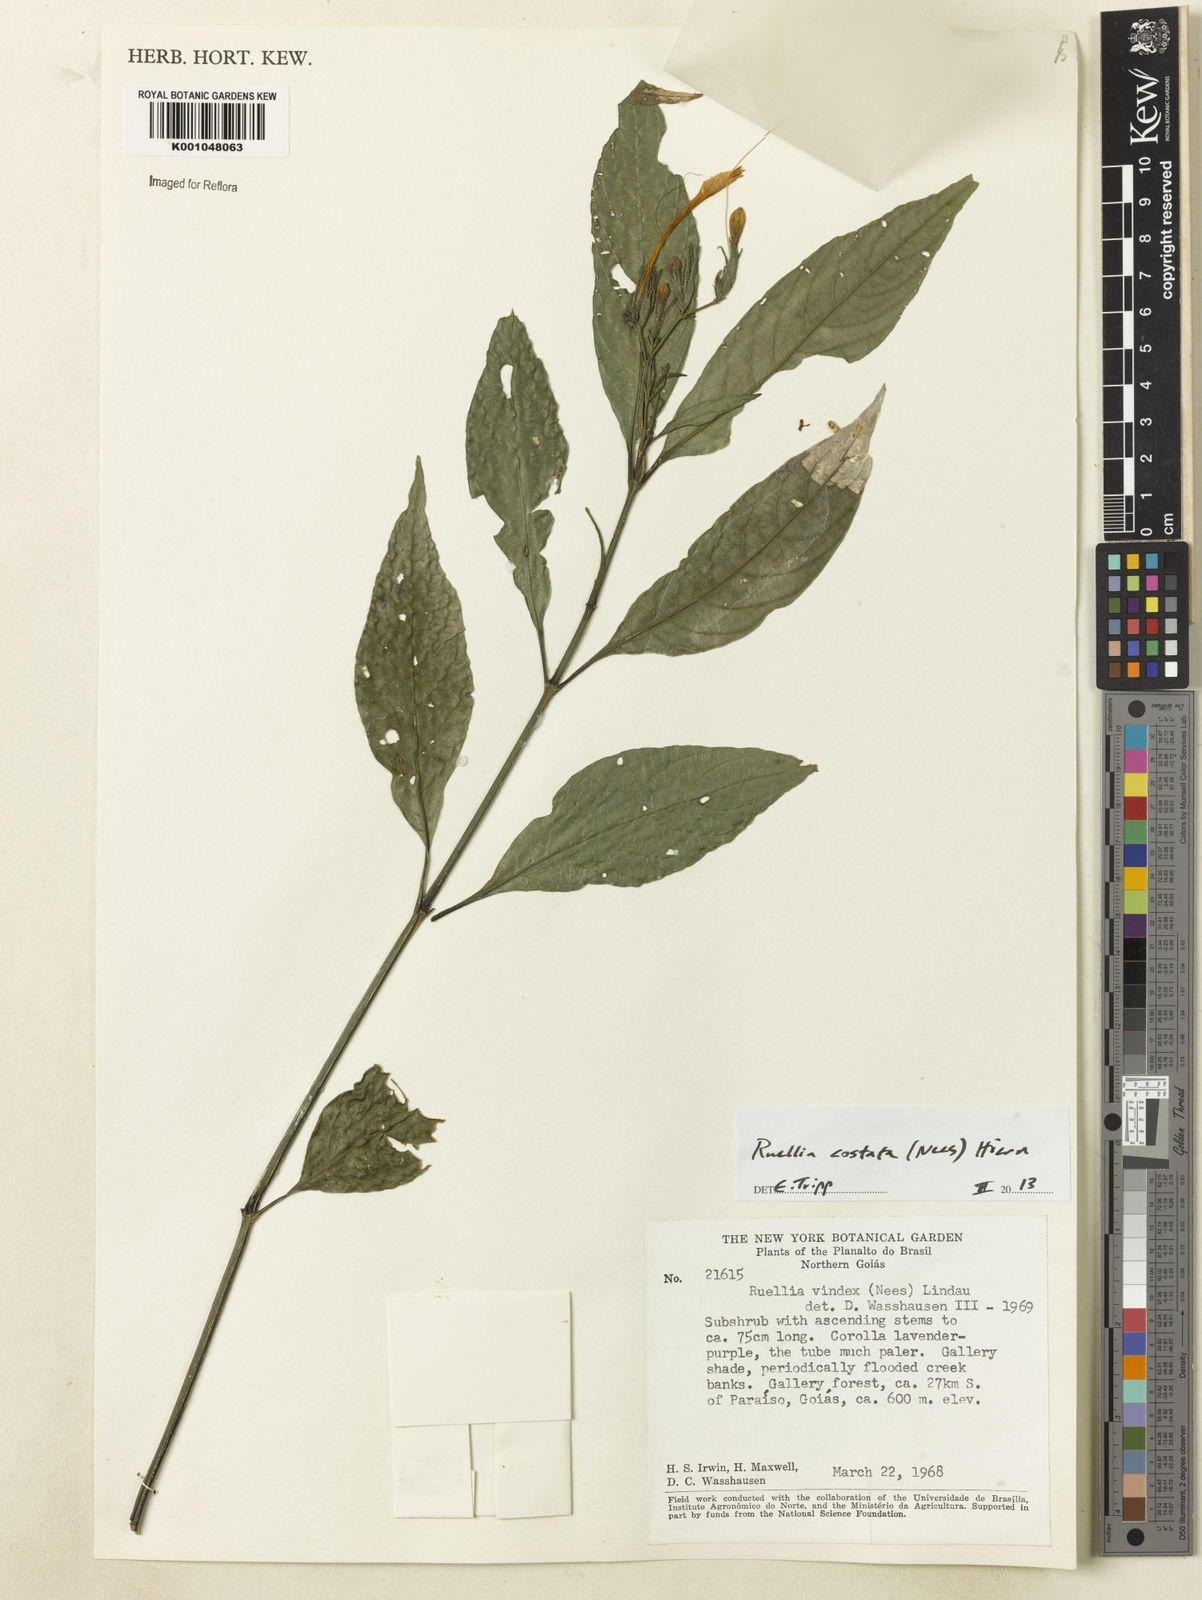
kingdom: Plantae
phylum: Tracheophyta
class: Magnoliopsida
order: Lamiales
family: Acanthaceae
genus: Ruellia
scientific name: Ruellia costata
